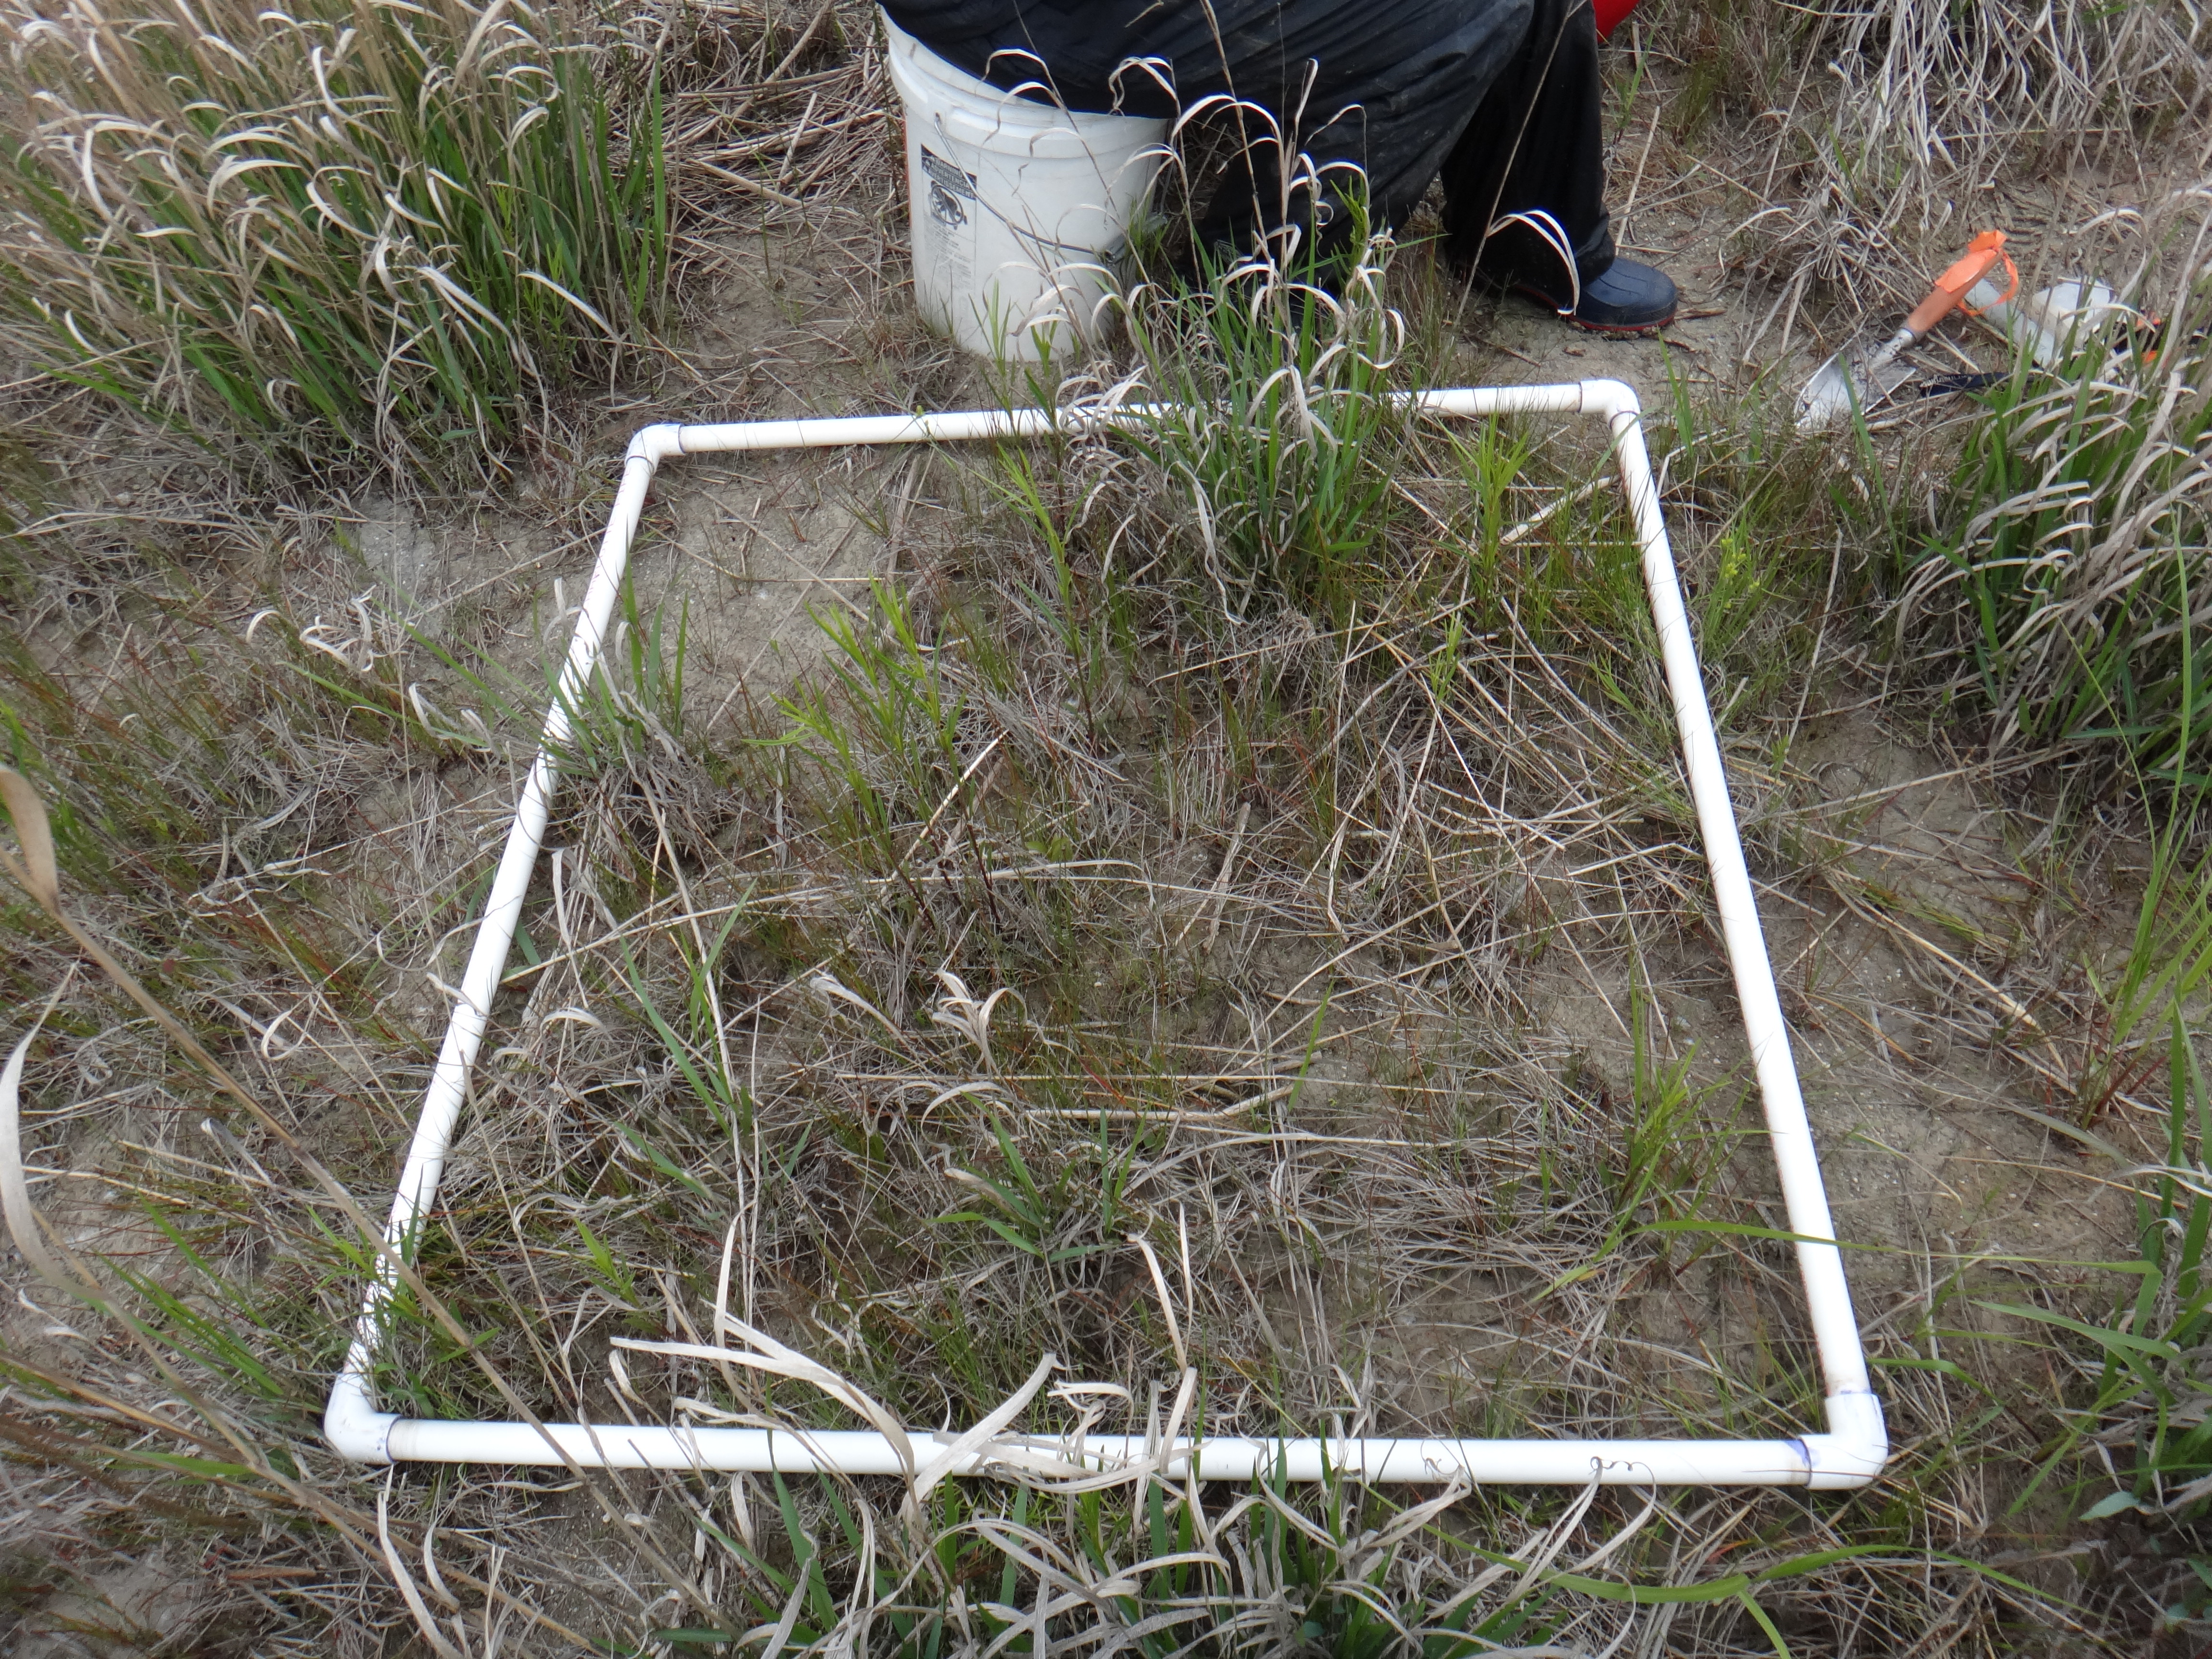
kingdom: Plantae
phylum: Tracheophyta
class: Liliopsida
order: Poales
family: Cyperaceae
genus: Cladium
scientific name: Cladium mariscoides
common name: Smooth sawgrass
